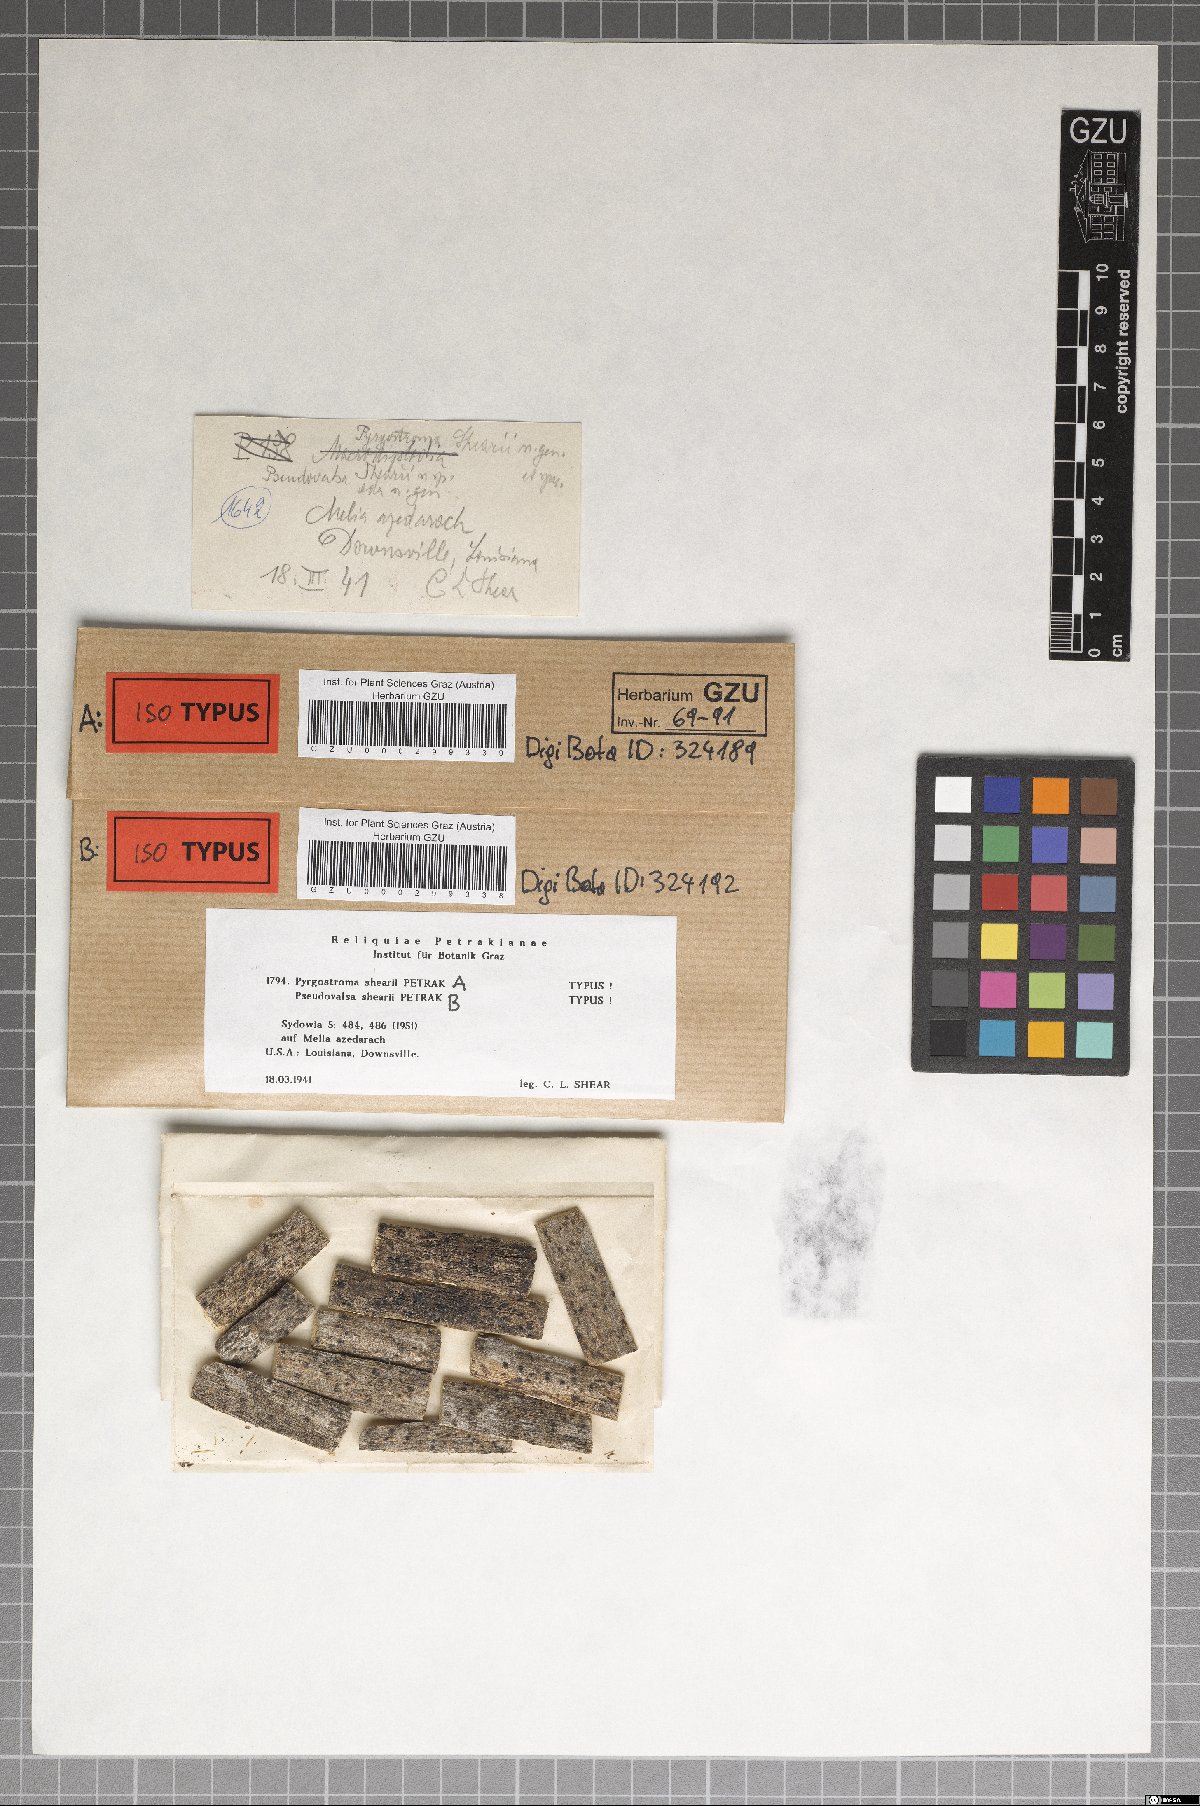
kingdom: Fungi
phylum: Ascomycota
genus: Pyrgostroma
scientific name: Pyrgostroma shearii
